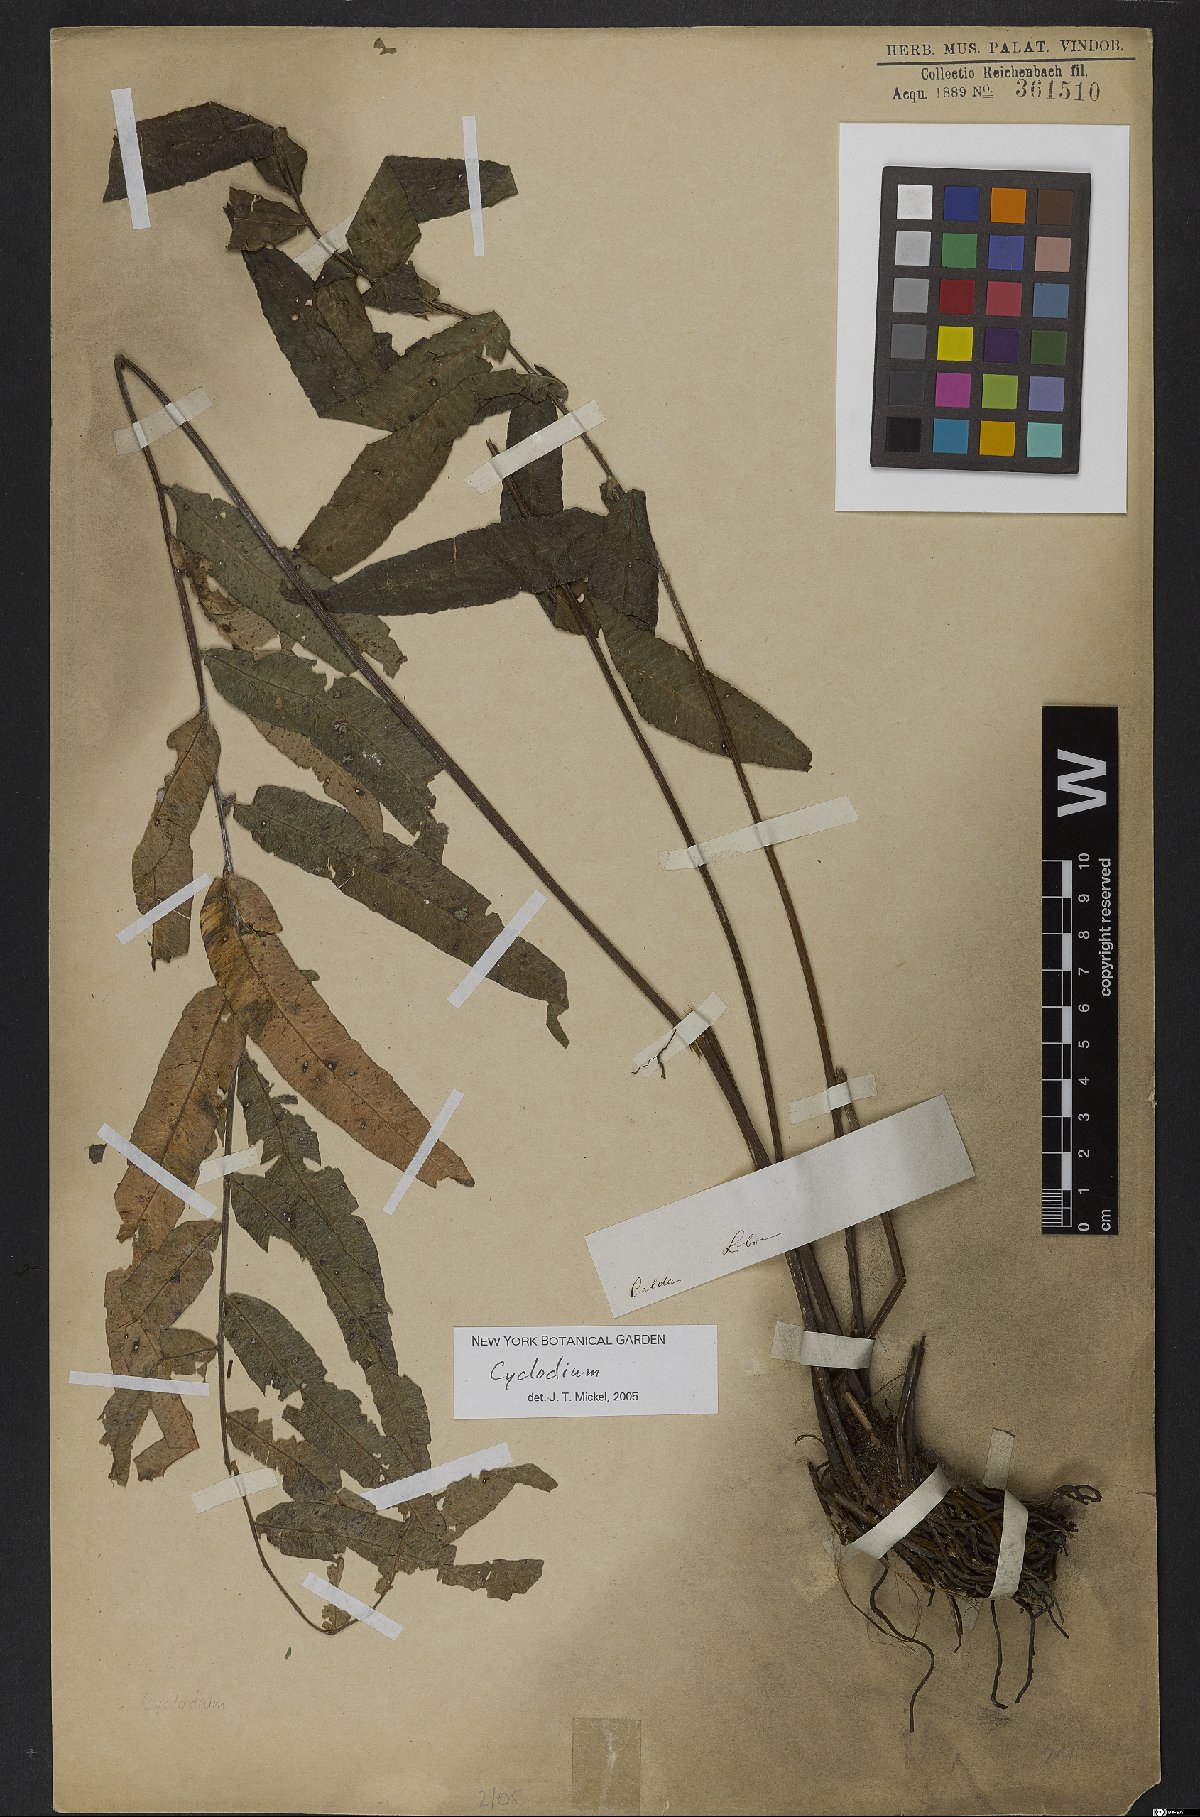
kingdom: Plantae
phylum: Tracheophyta
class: Polypodiopsida
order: Polypodiales
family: Dryopteridaceae
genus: Cyclodium
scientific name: Cyclodium
